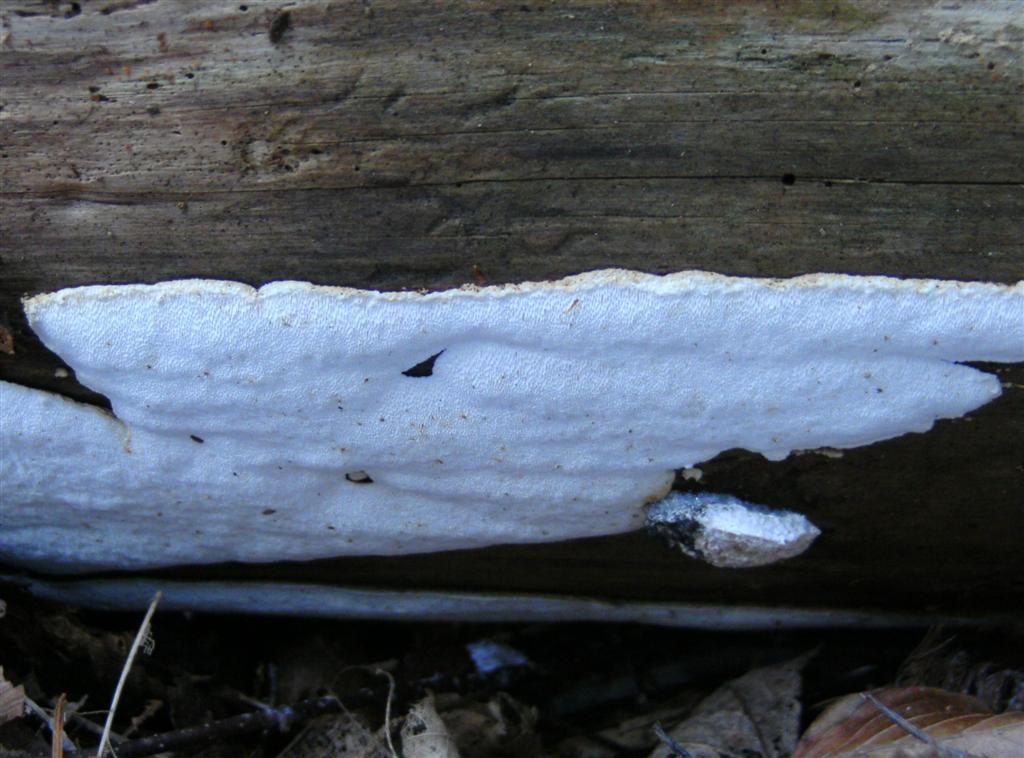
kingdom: Fungi
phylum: Basidiomycota
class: Agaricomycetes
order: Polyporales
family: Fomitopsidaceae
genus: Neoantrodia
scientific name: Neoantrodia serialis
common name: række-sejporesvamp
